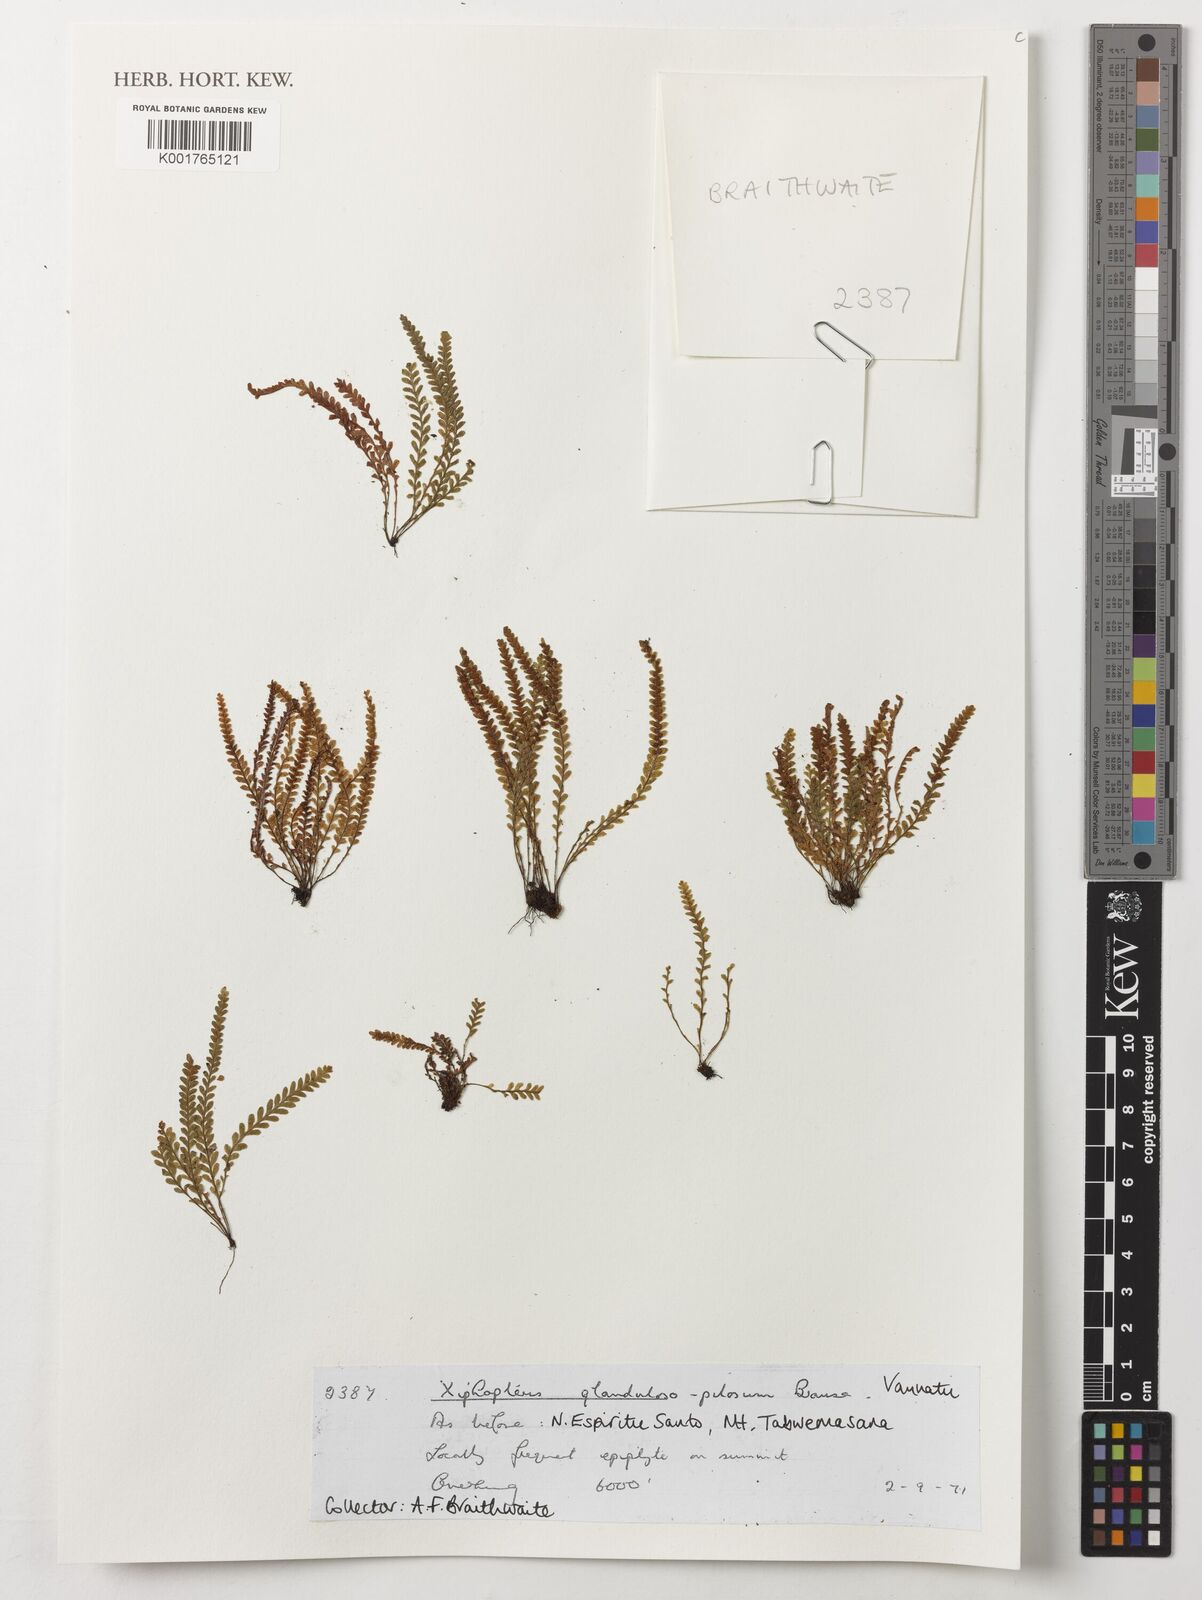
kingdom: Plantae
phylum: Tracheophyta
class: Polypodiopsida
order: Polypodiales
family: Polypodiaceae
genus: Chrysogrammitis
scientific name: Chrysogrammitis musgraviana
